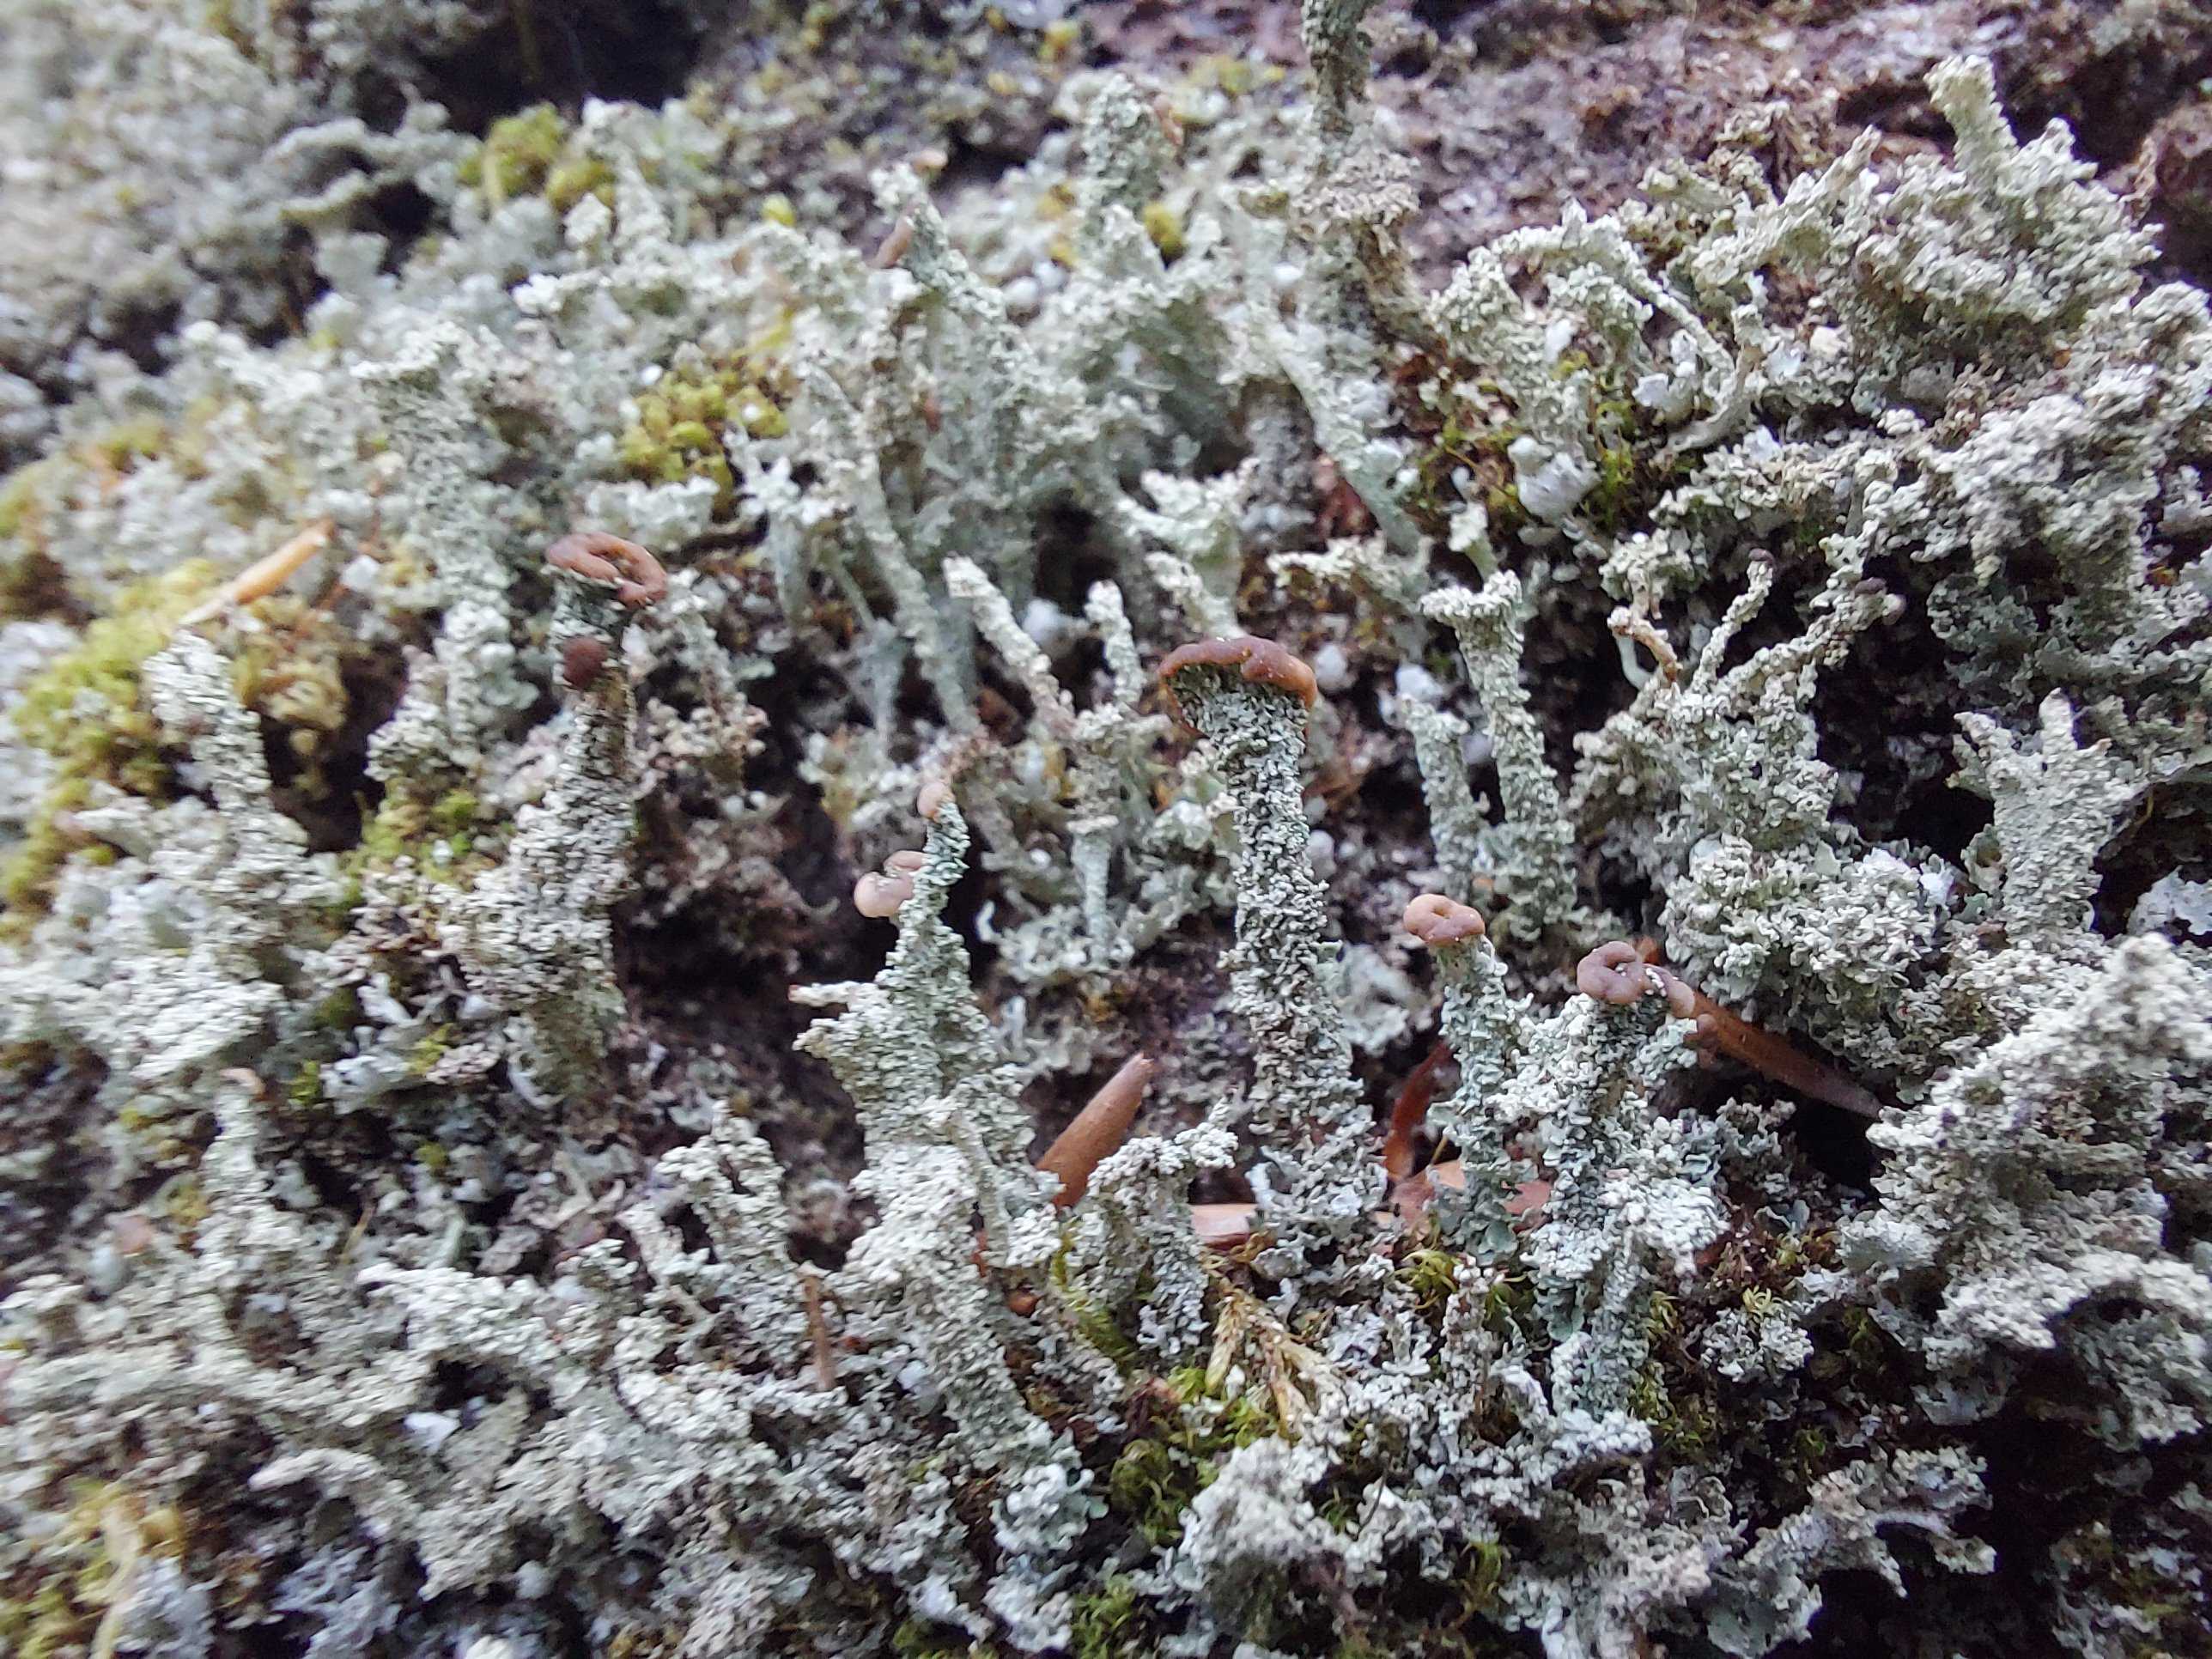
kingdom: Fungi
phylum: Ascomycota
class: Lecanoromycetes
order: Lecanorales
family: Cladoniaceae
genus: Cladonia
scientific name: Cladonia ramulosa
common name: kliddet bægerlav
